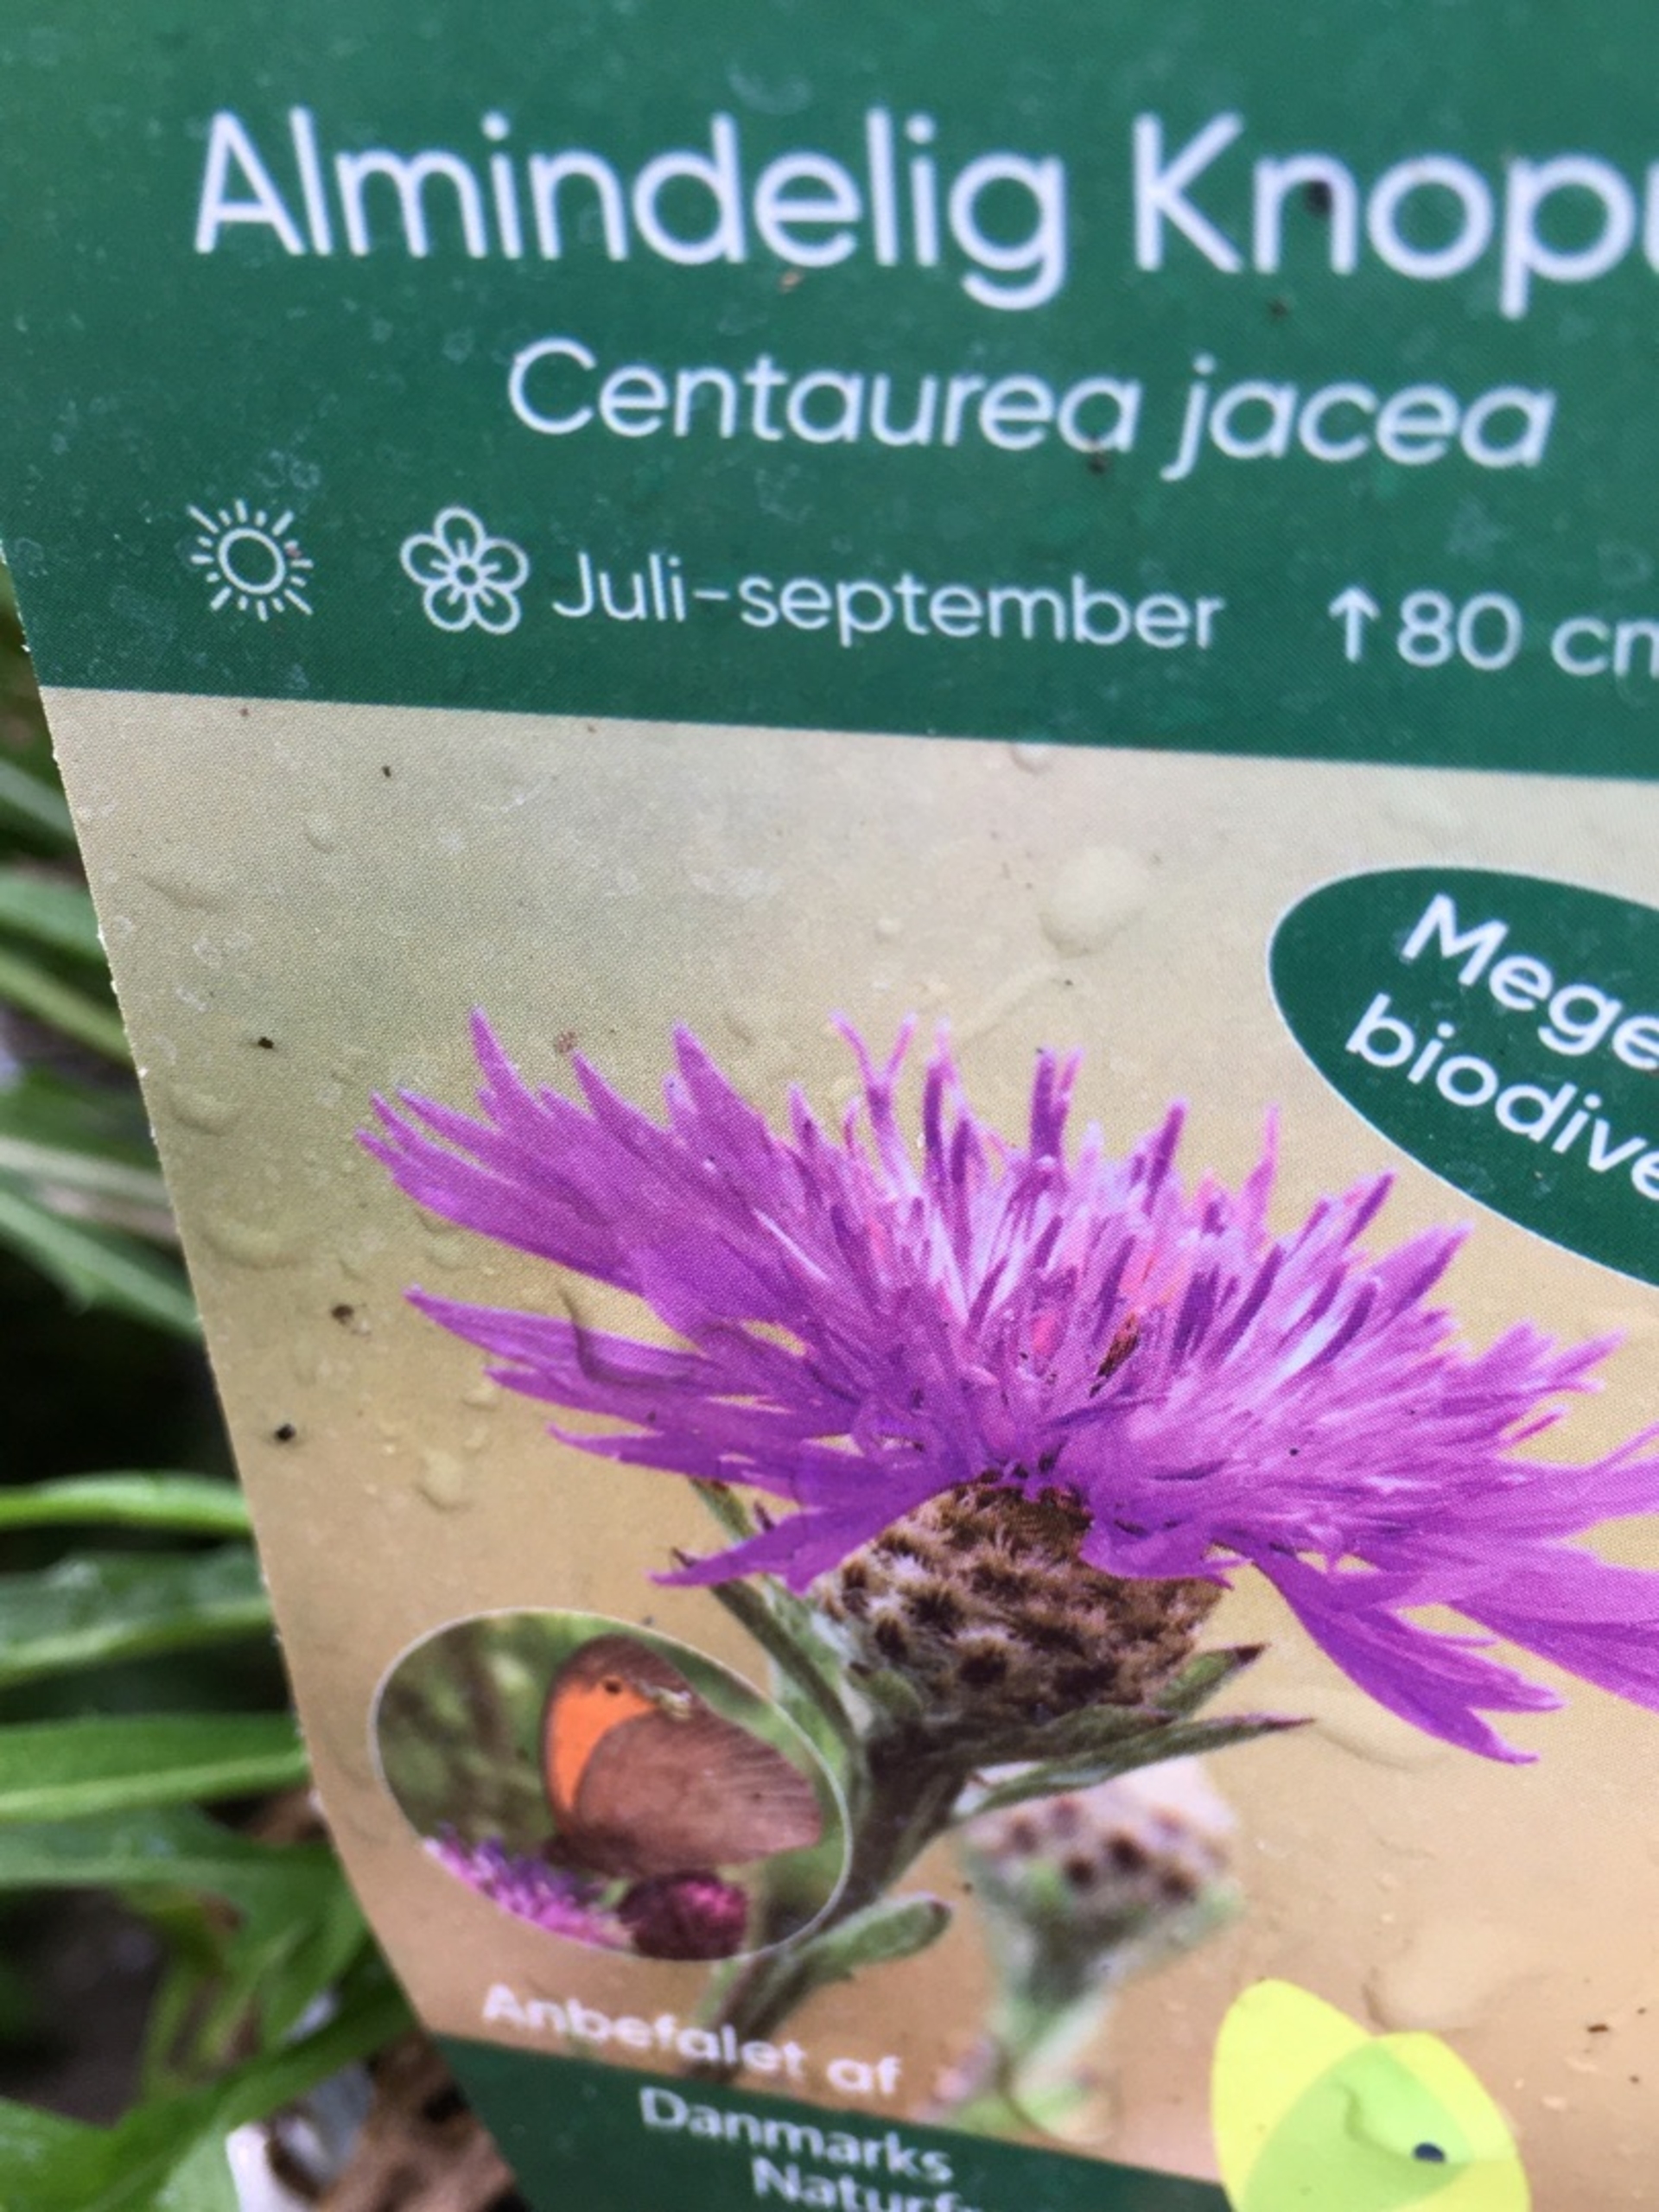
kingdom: Plantae
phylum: Tracheophyta
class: Magnoliopsida
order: Asterales
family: Asteraceae
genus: Centaurea
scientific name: Centaurea jacea
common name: Almindelig knopurt
